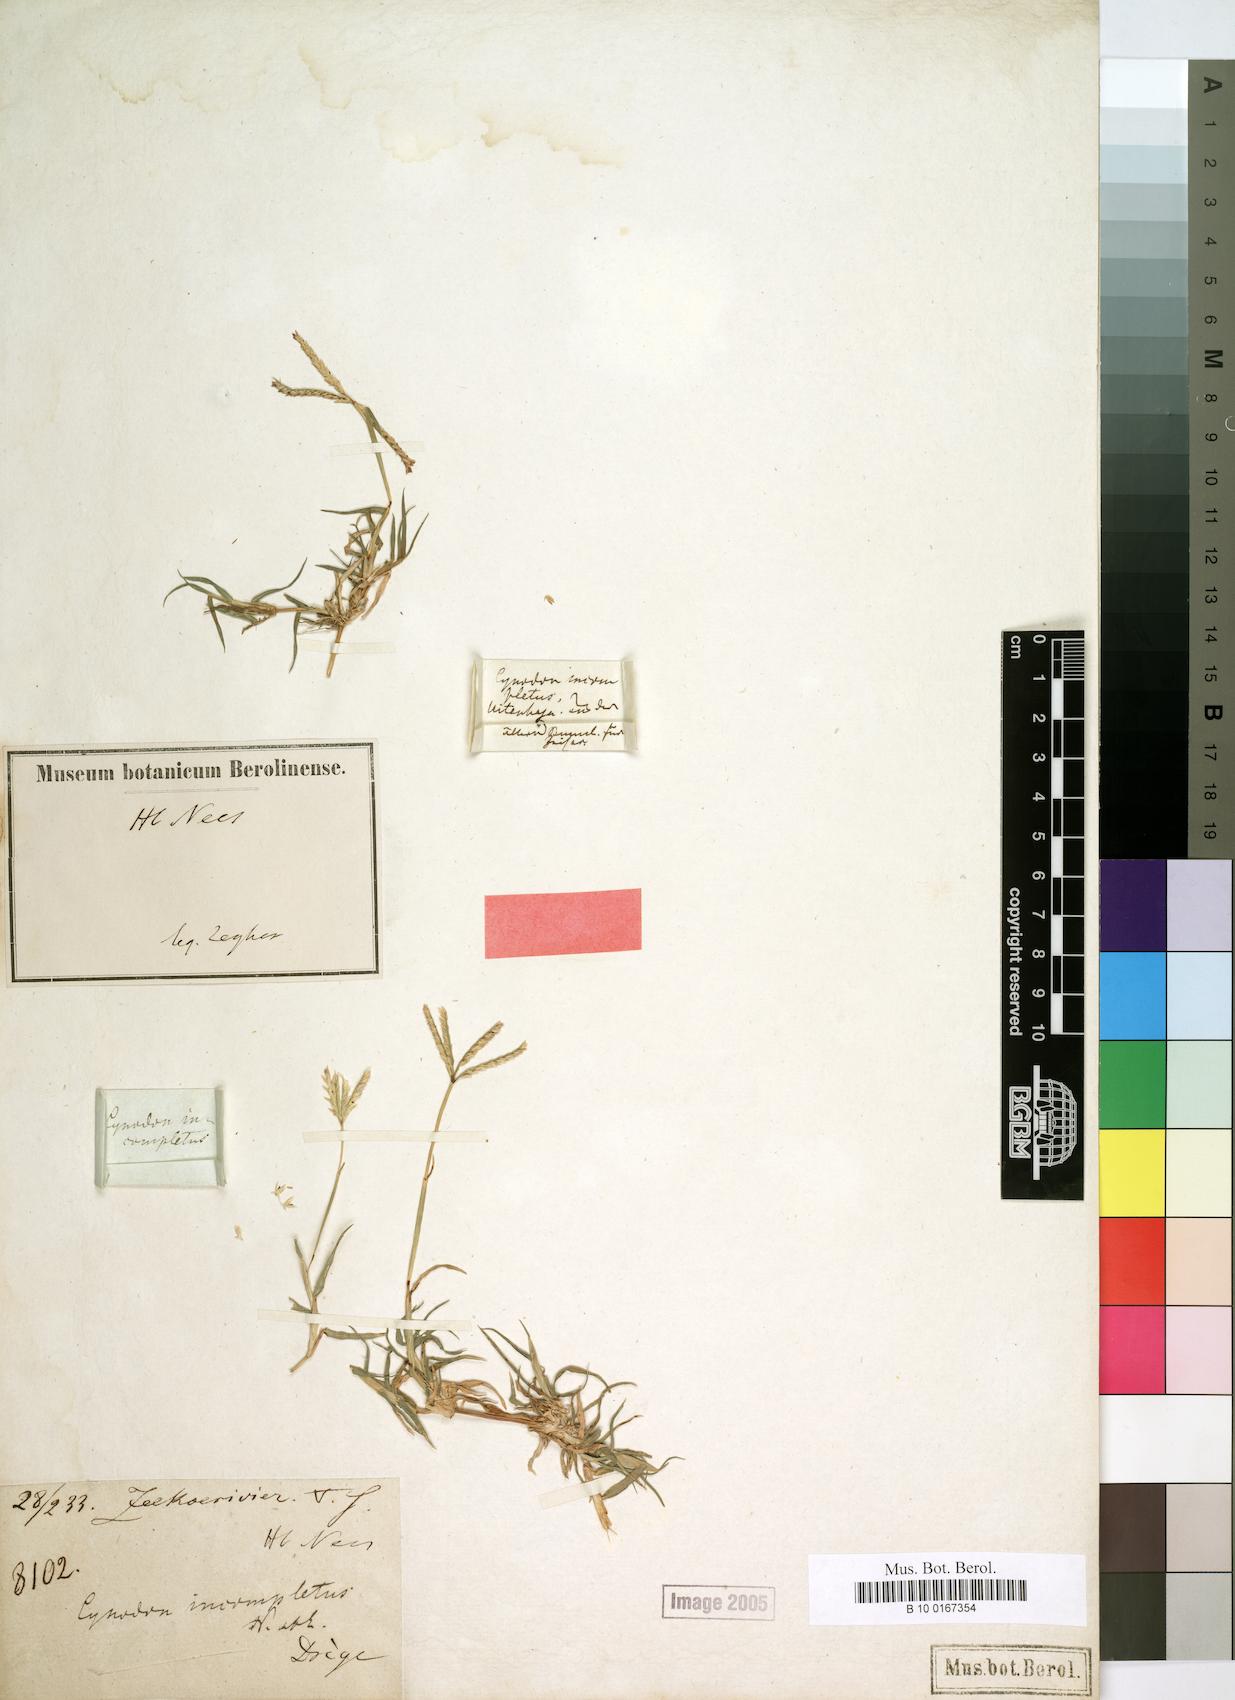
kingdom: Plantae
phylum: Tracheophyta
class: Liliopsida
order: Poales
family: Poaceae
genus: Cynodon
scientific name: Cynodon incompletus
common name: African bermuda-grass
